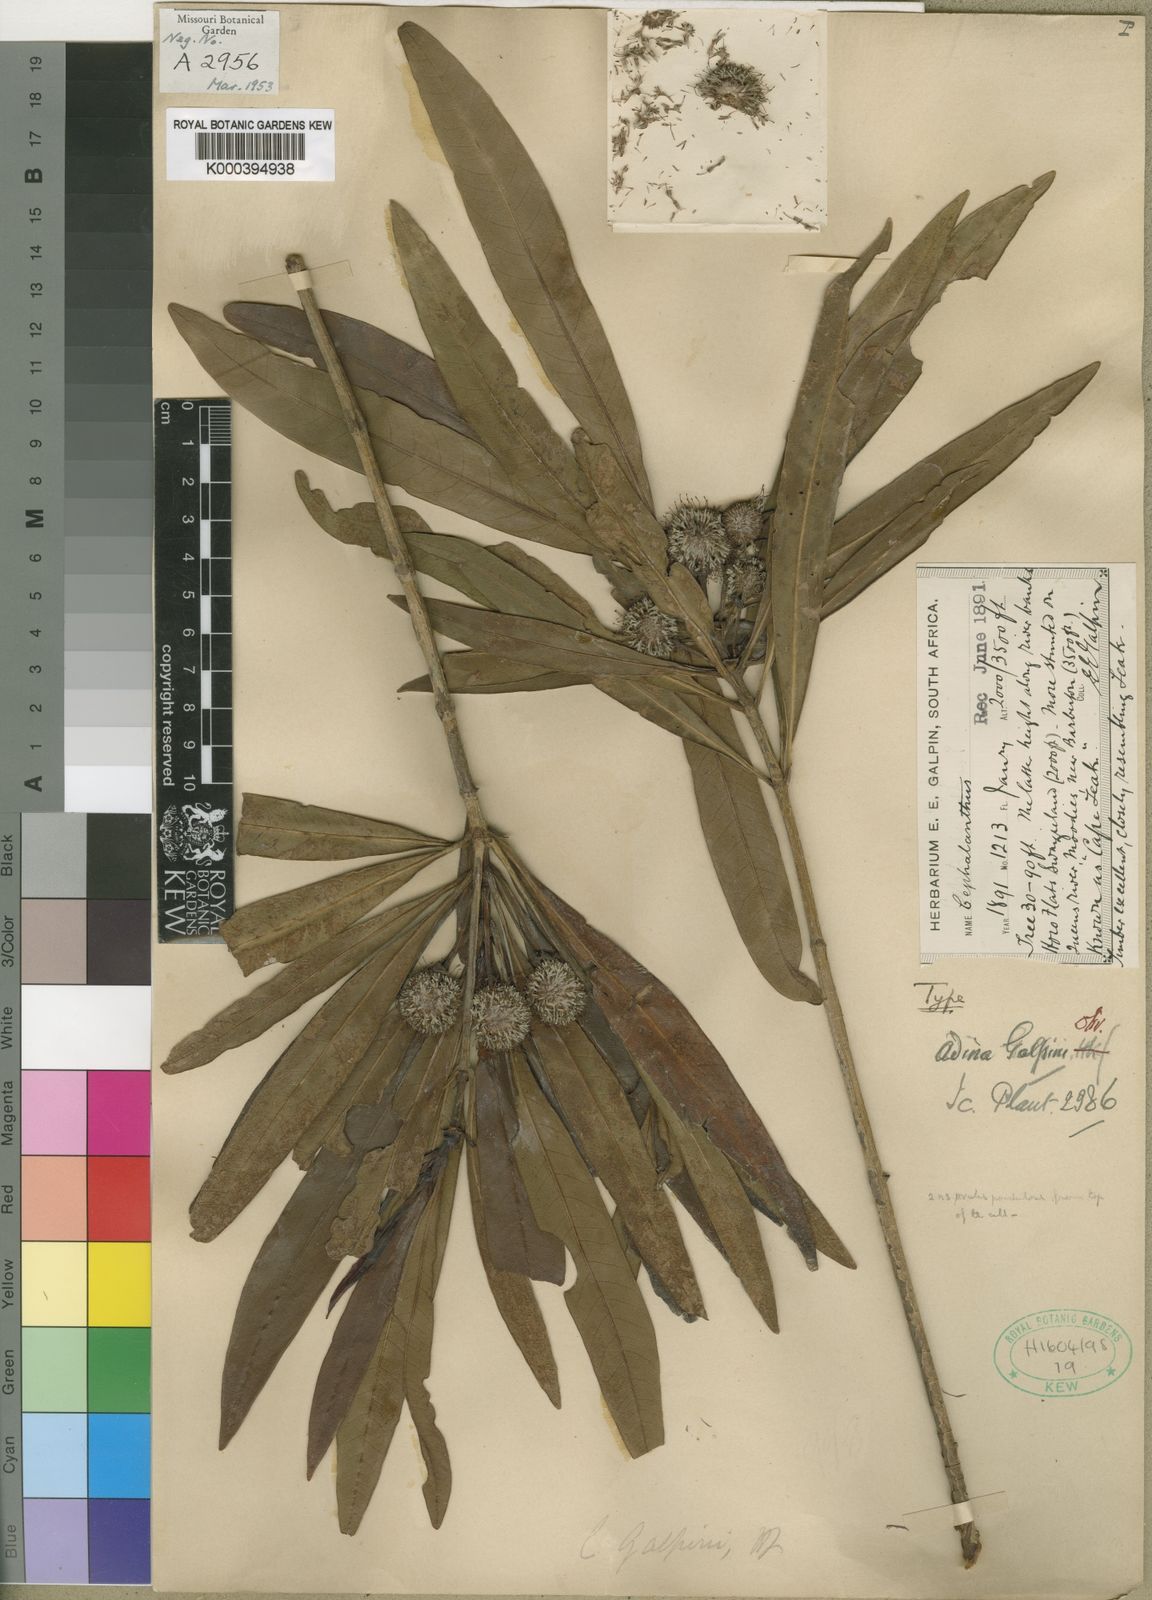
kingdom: Plantae
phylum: Tracheophyta
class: Magnoliopsida
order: Gentianales
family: Rubiaceae
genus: Breonadia
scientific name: Breonadia salicina
